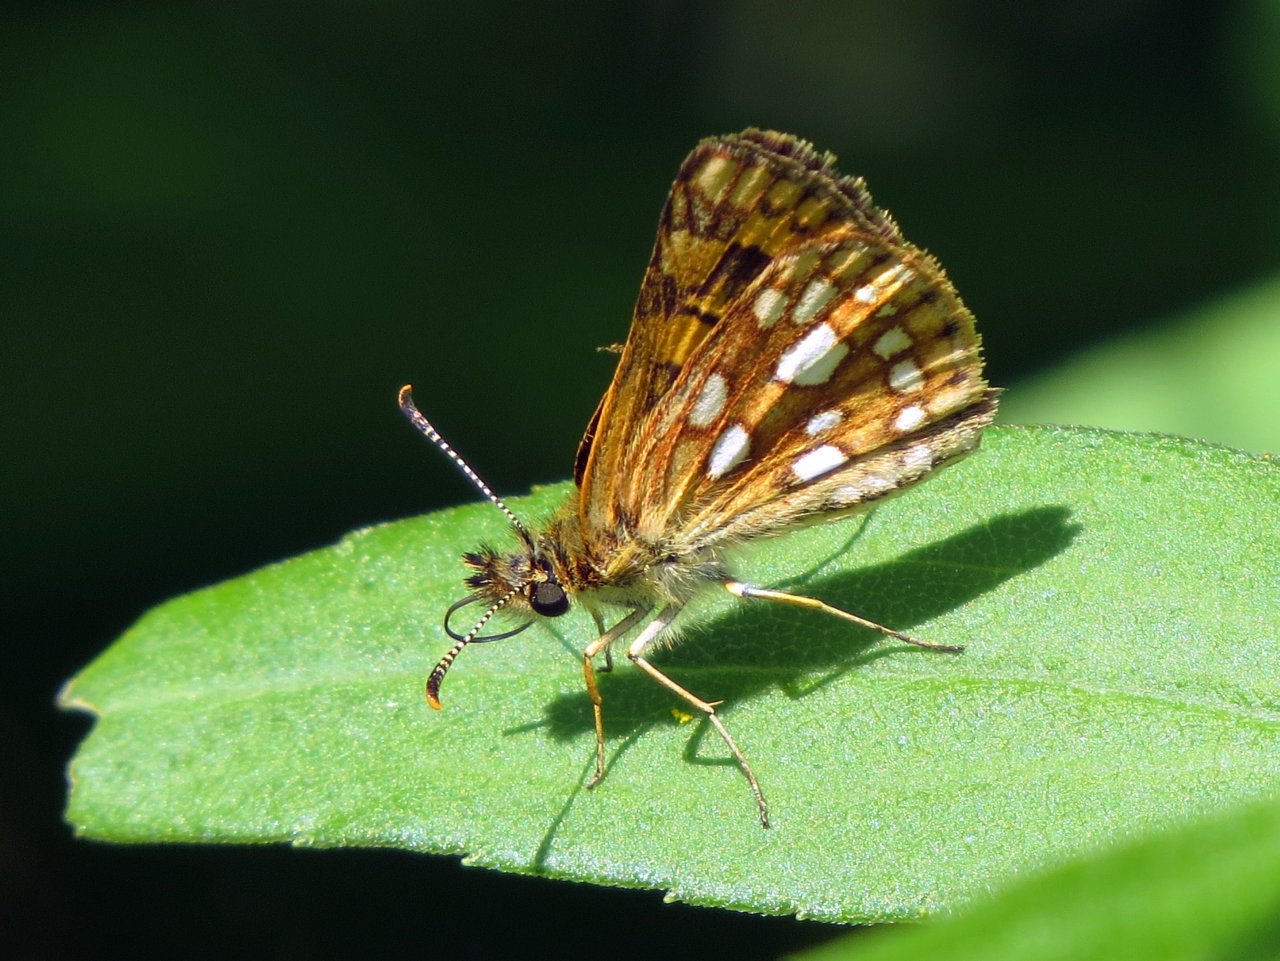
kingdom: Animalia
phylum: Arthropoda
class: Insecta
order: Lepidoptera
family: Hesperiidae
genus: Carterocephalus
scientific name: Carterocephalus palaemon
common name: Chequered Skipper
